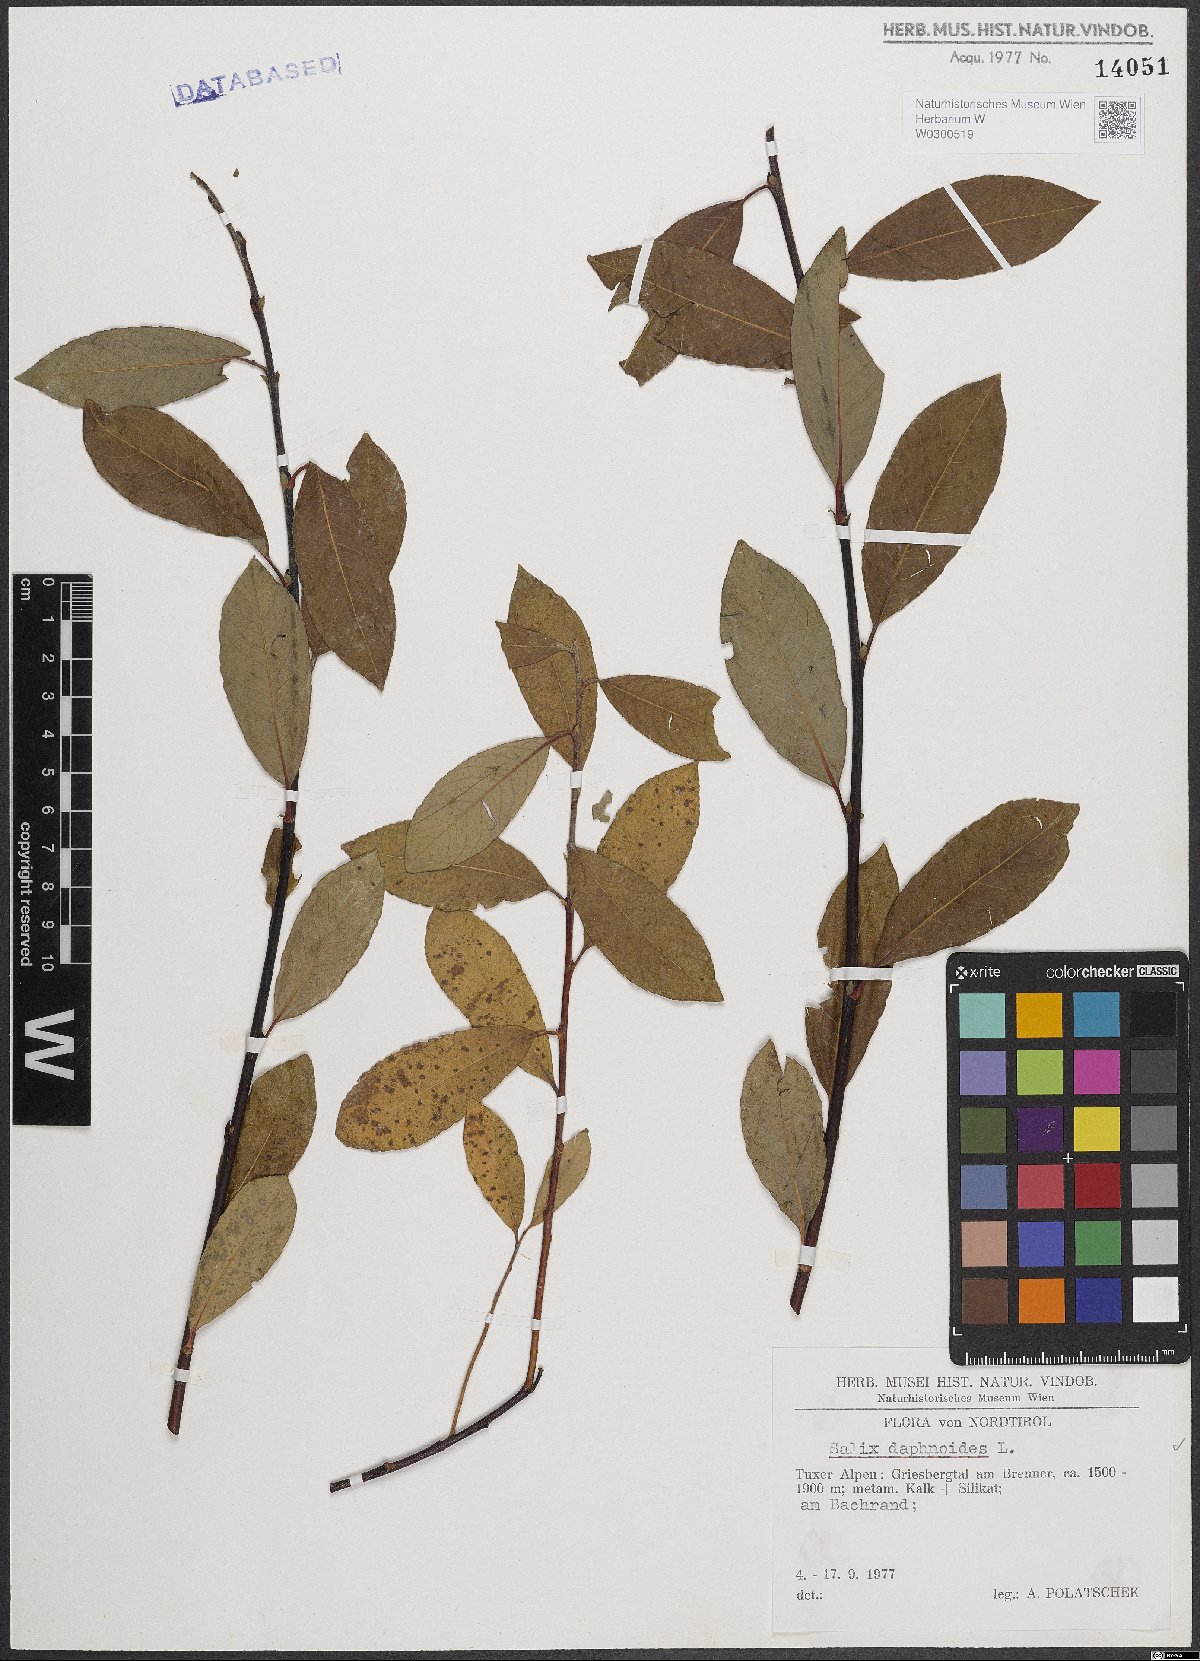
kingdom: Plantae
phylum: Tracheophyta
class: Magnoliopsida
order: Malpighiales
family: Salicaceae
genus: Salix
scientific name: Salix daphnoides
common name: European violet-willow
